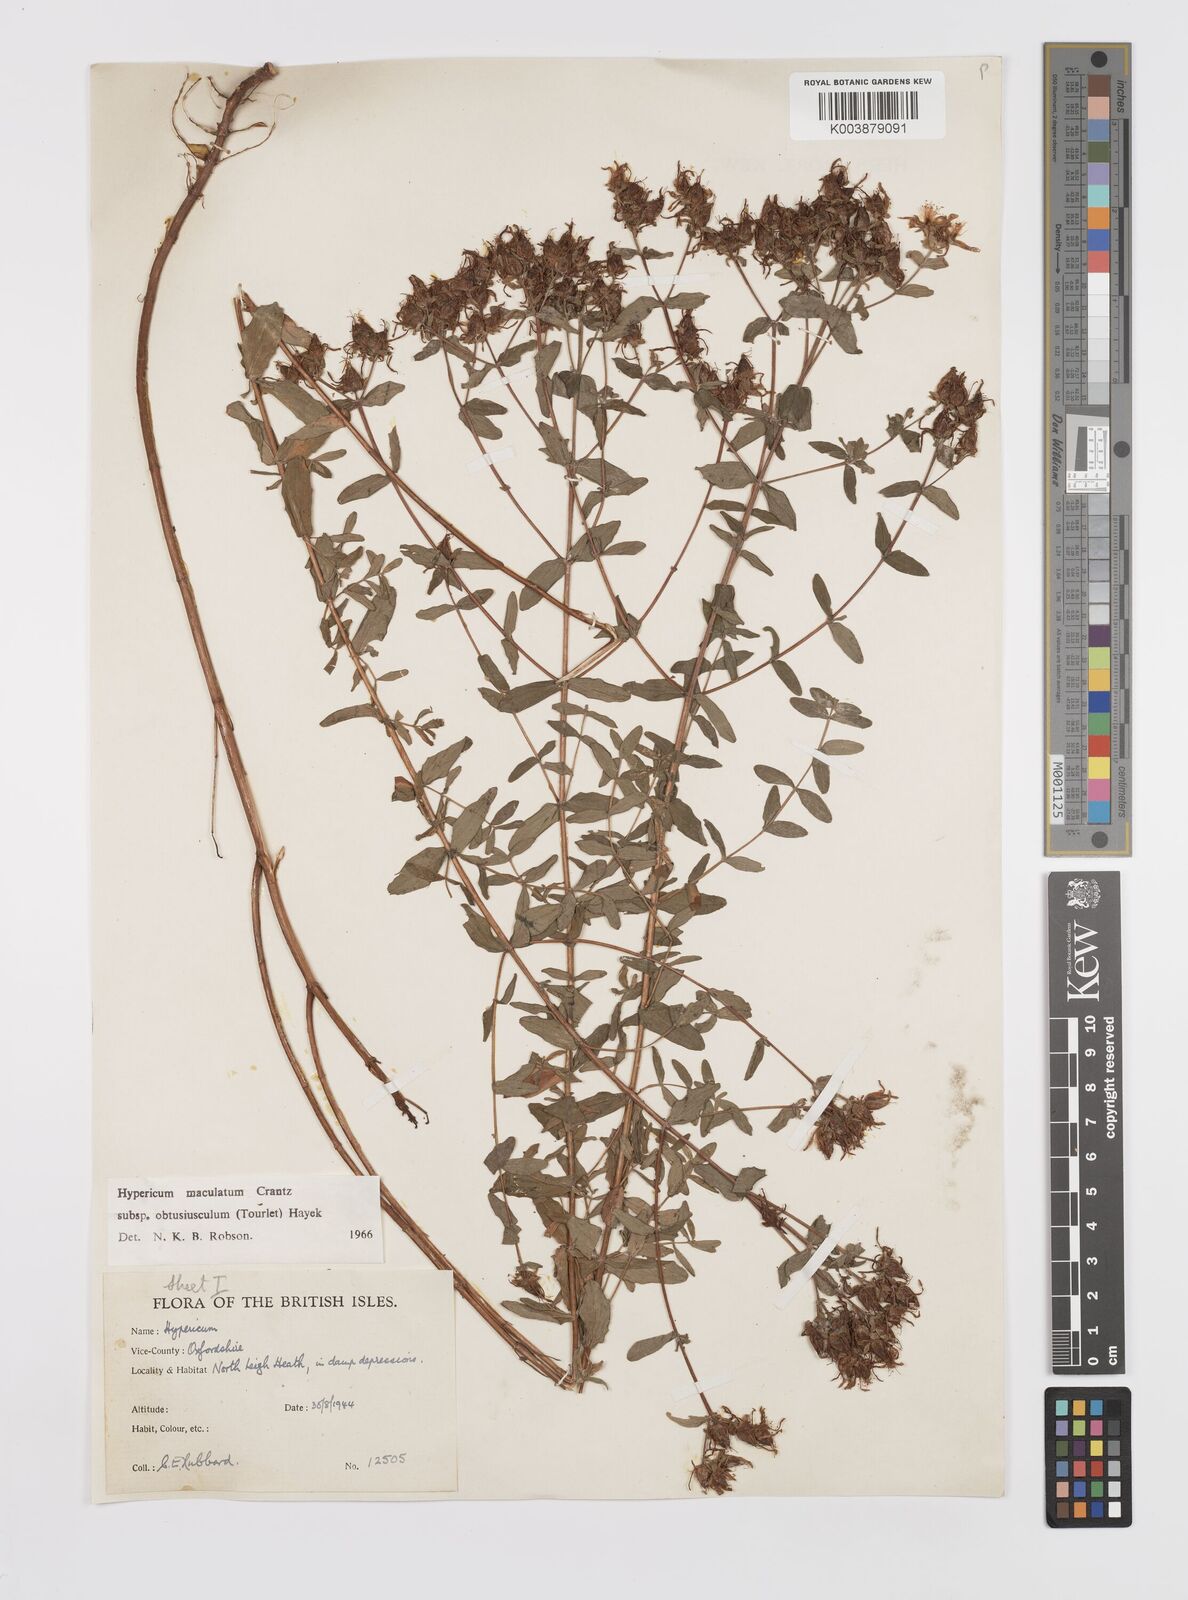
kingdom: Plantae
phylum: Tracheophyta
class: Magnoliopsida
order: Malpighiales
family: Hypericaceae
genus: Hypericum
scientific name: Hypericum dubium
